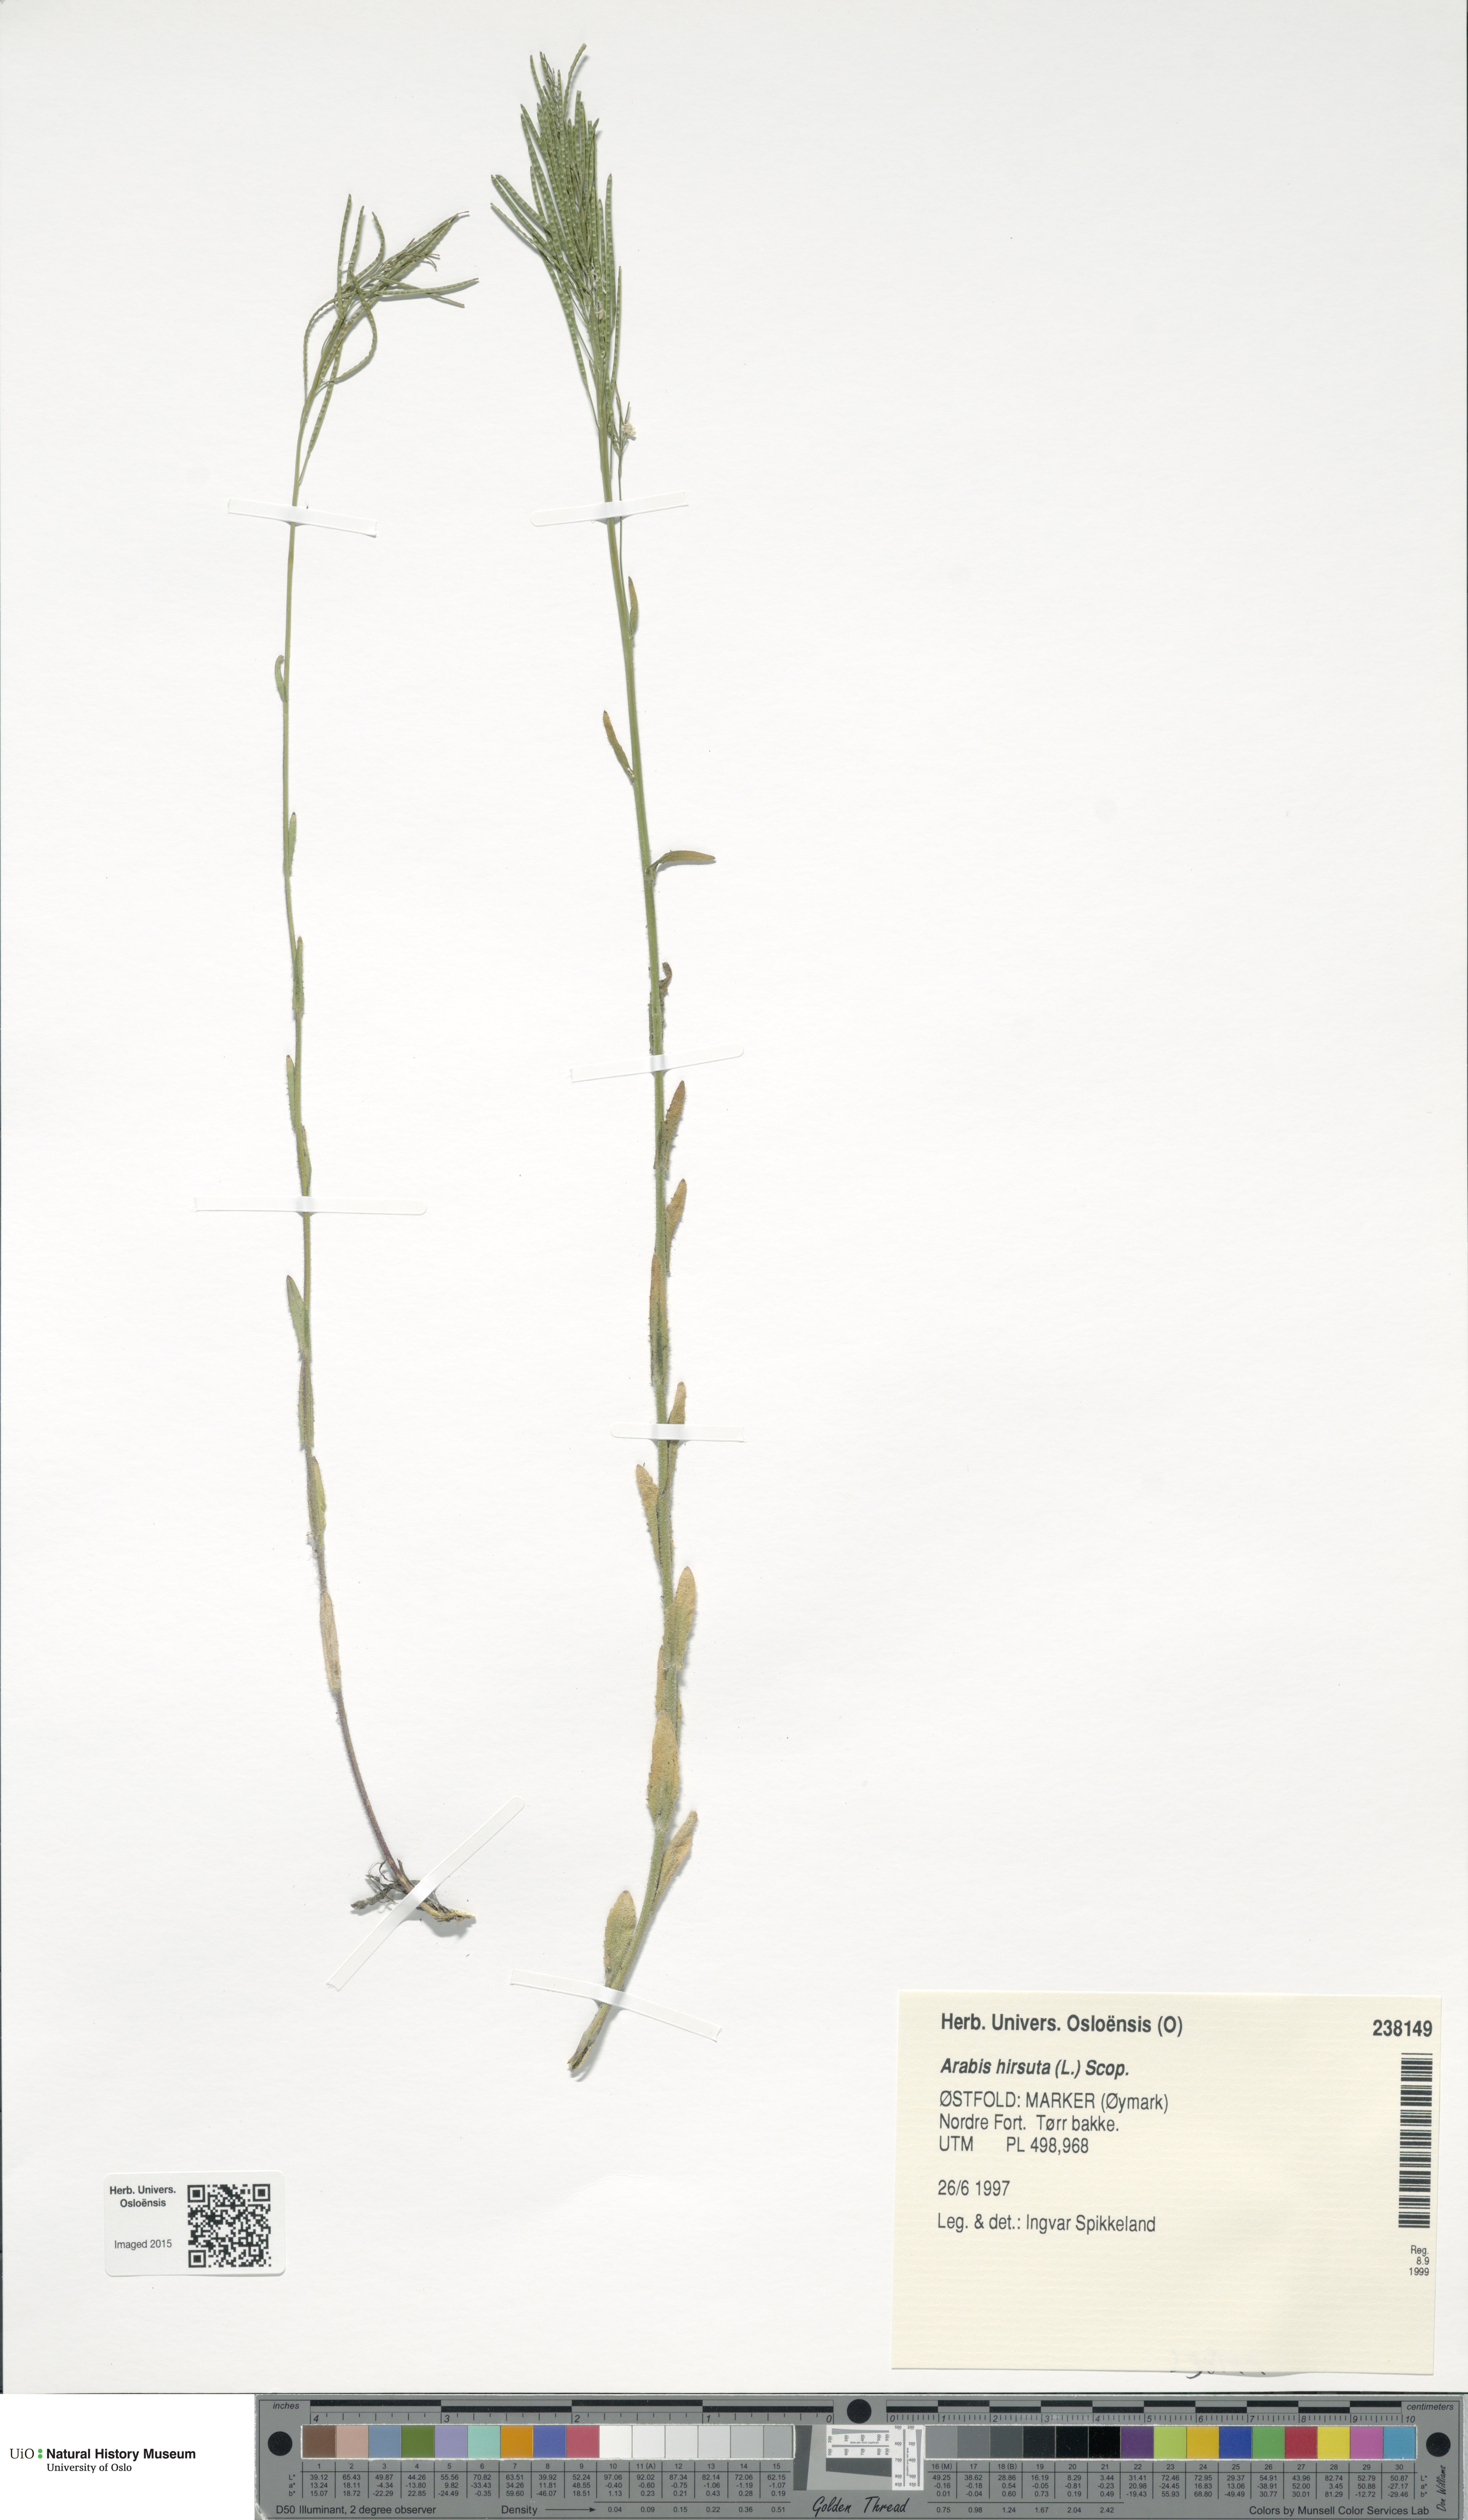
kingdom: Plantae
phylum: Tracheophyta
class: Magnoliopsida
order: Brassicales
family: Brassicaceae
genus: Arabis
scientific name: Arabis hirsuta
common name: Hairy rock-cress
